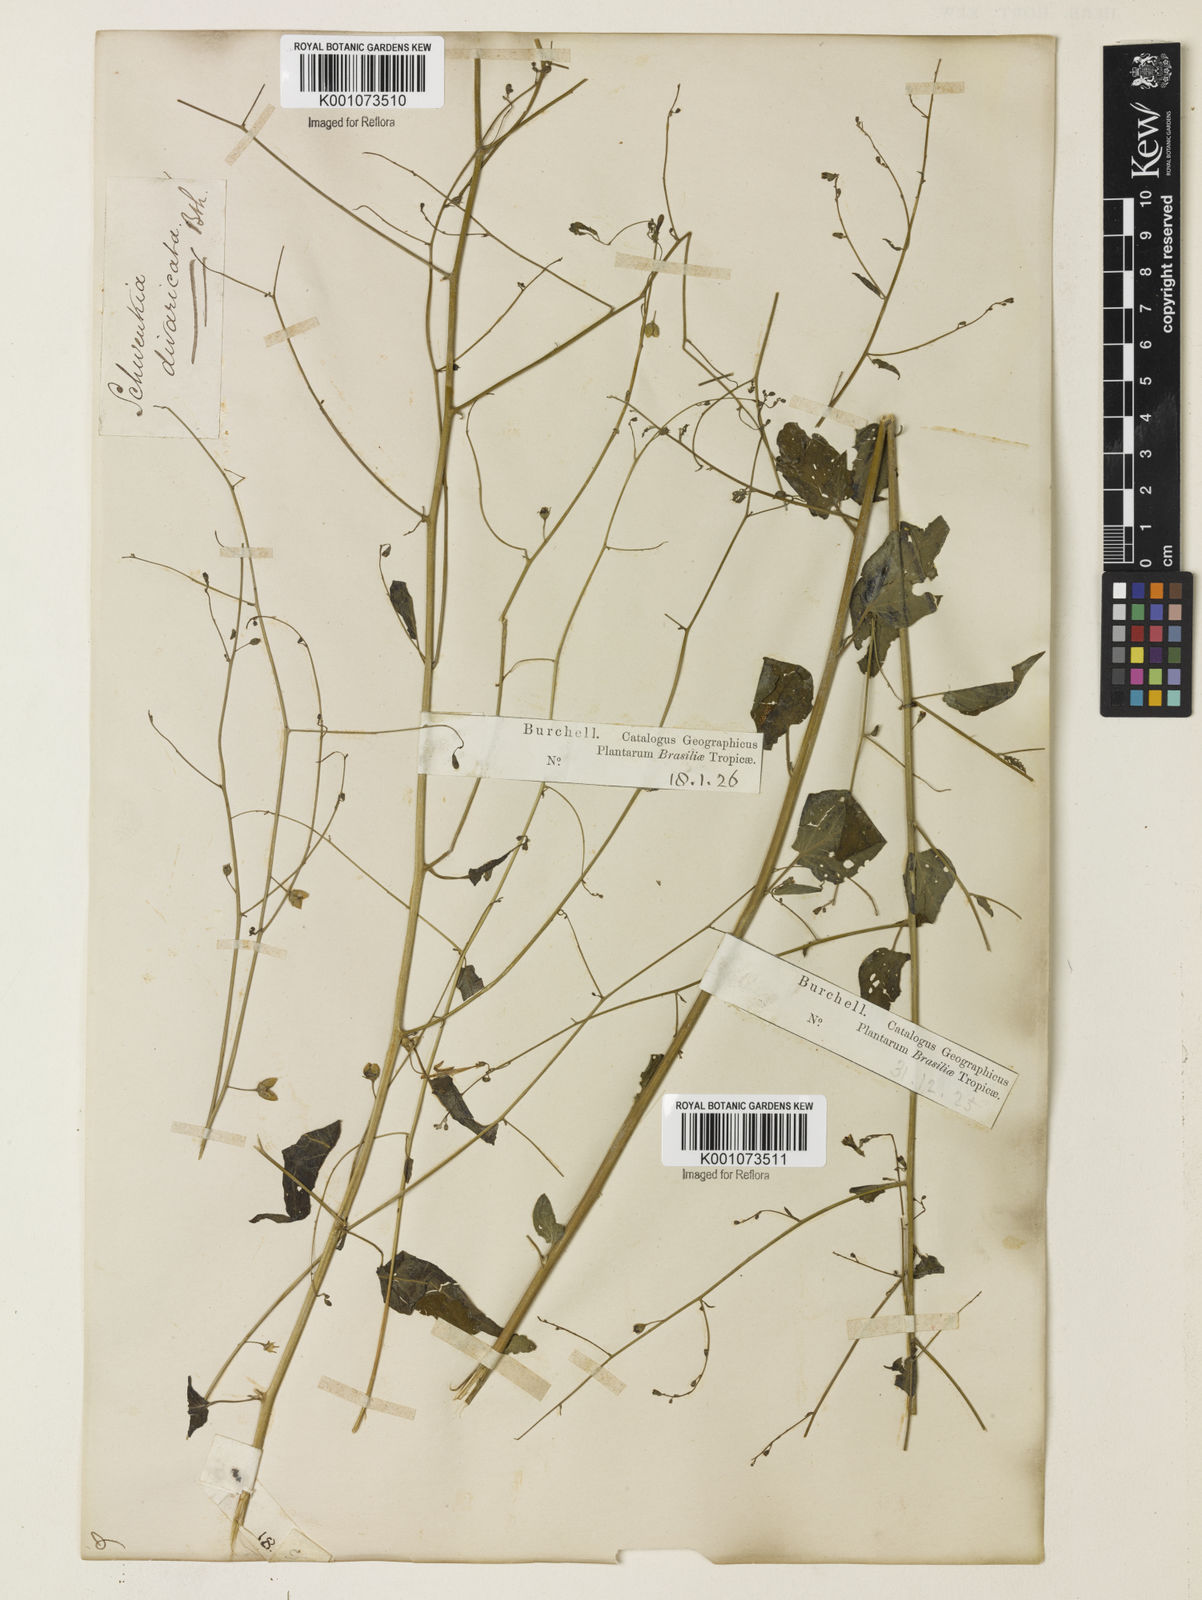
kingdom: Plantae
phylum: Tracheophyta
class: Magnoliopsida
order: Solanales
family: Solanaceae
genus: Schwenckia
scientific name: Schwenckia paniculata
